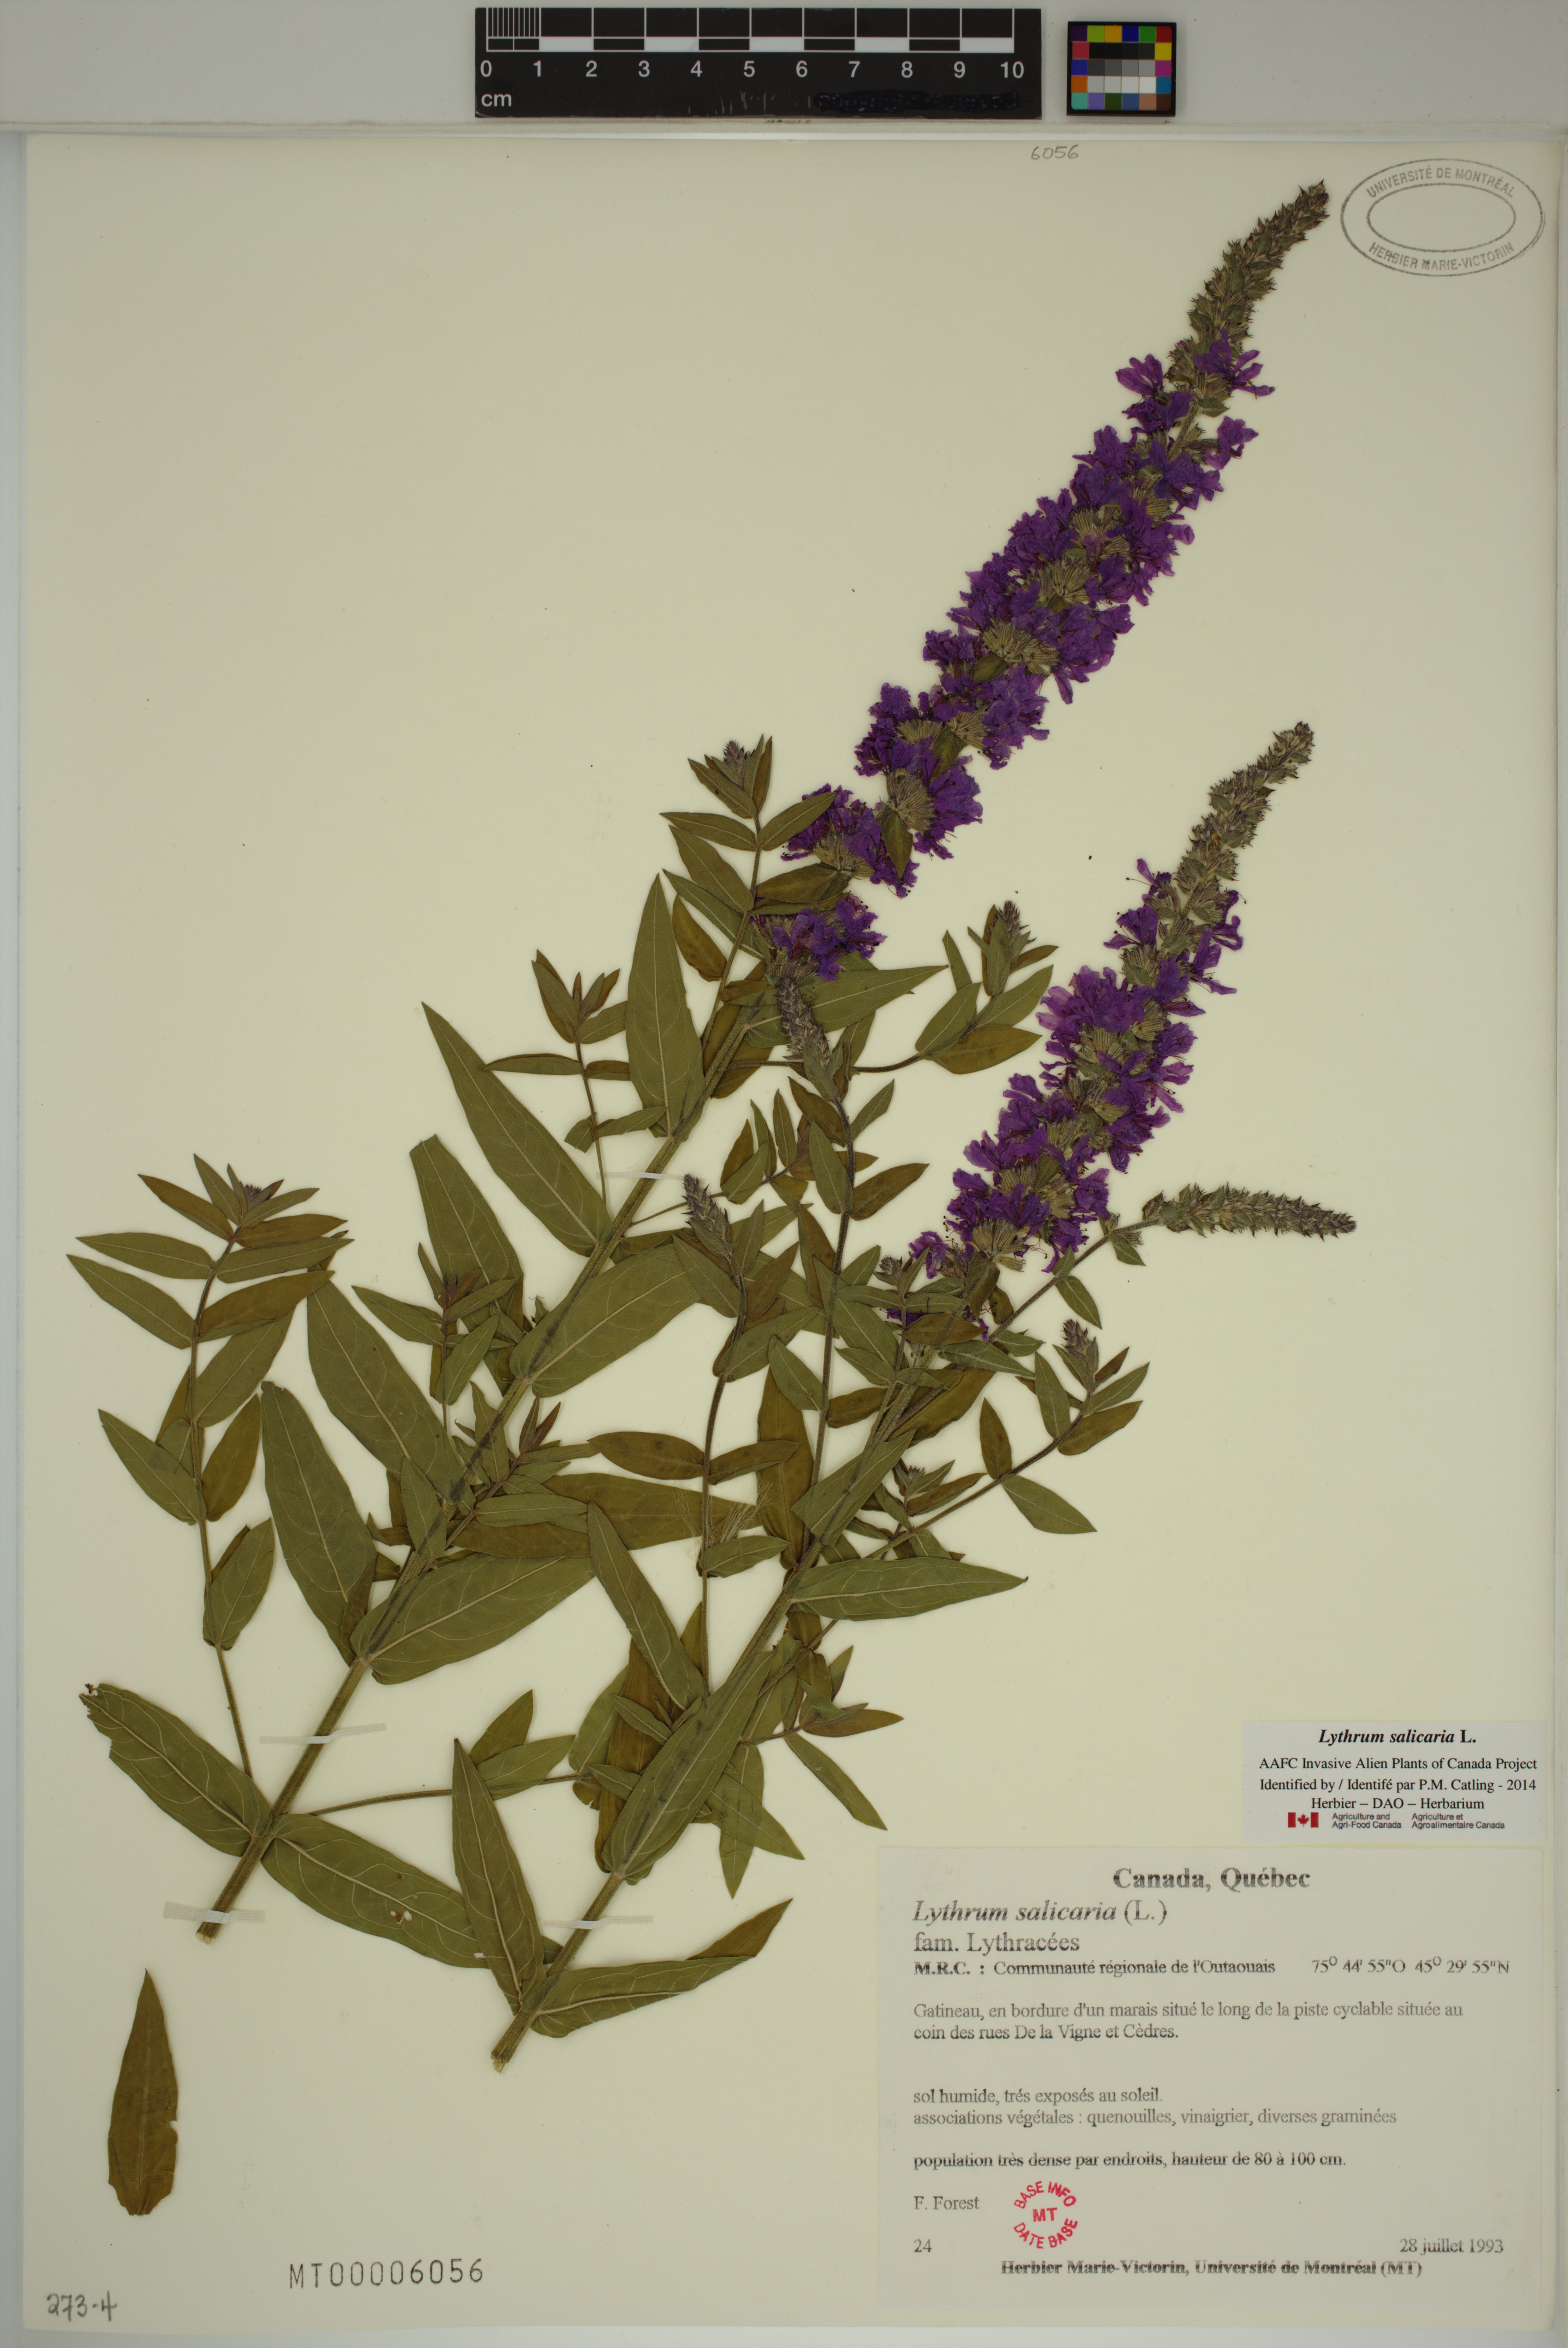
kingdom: Plantae
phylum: Tracheophyta
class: Magnoliopsida
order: Myrtales
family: Lythraceae
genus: Lythrum
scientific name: Lythrum salicaria
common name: Purple loosestrife
